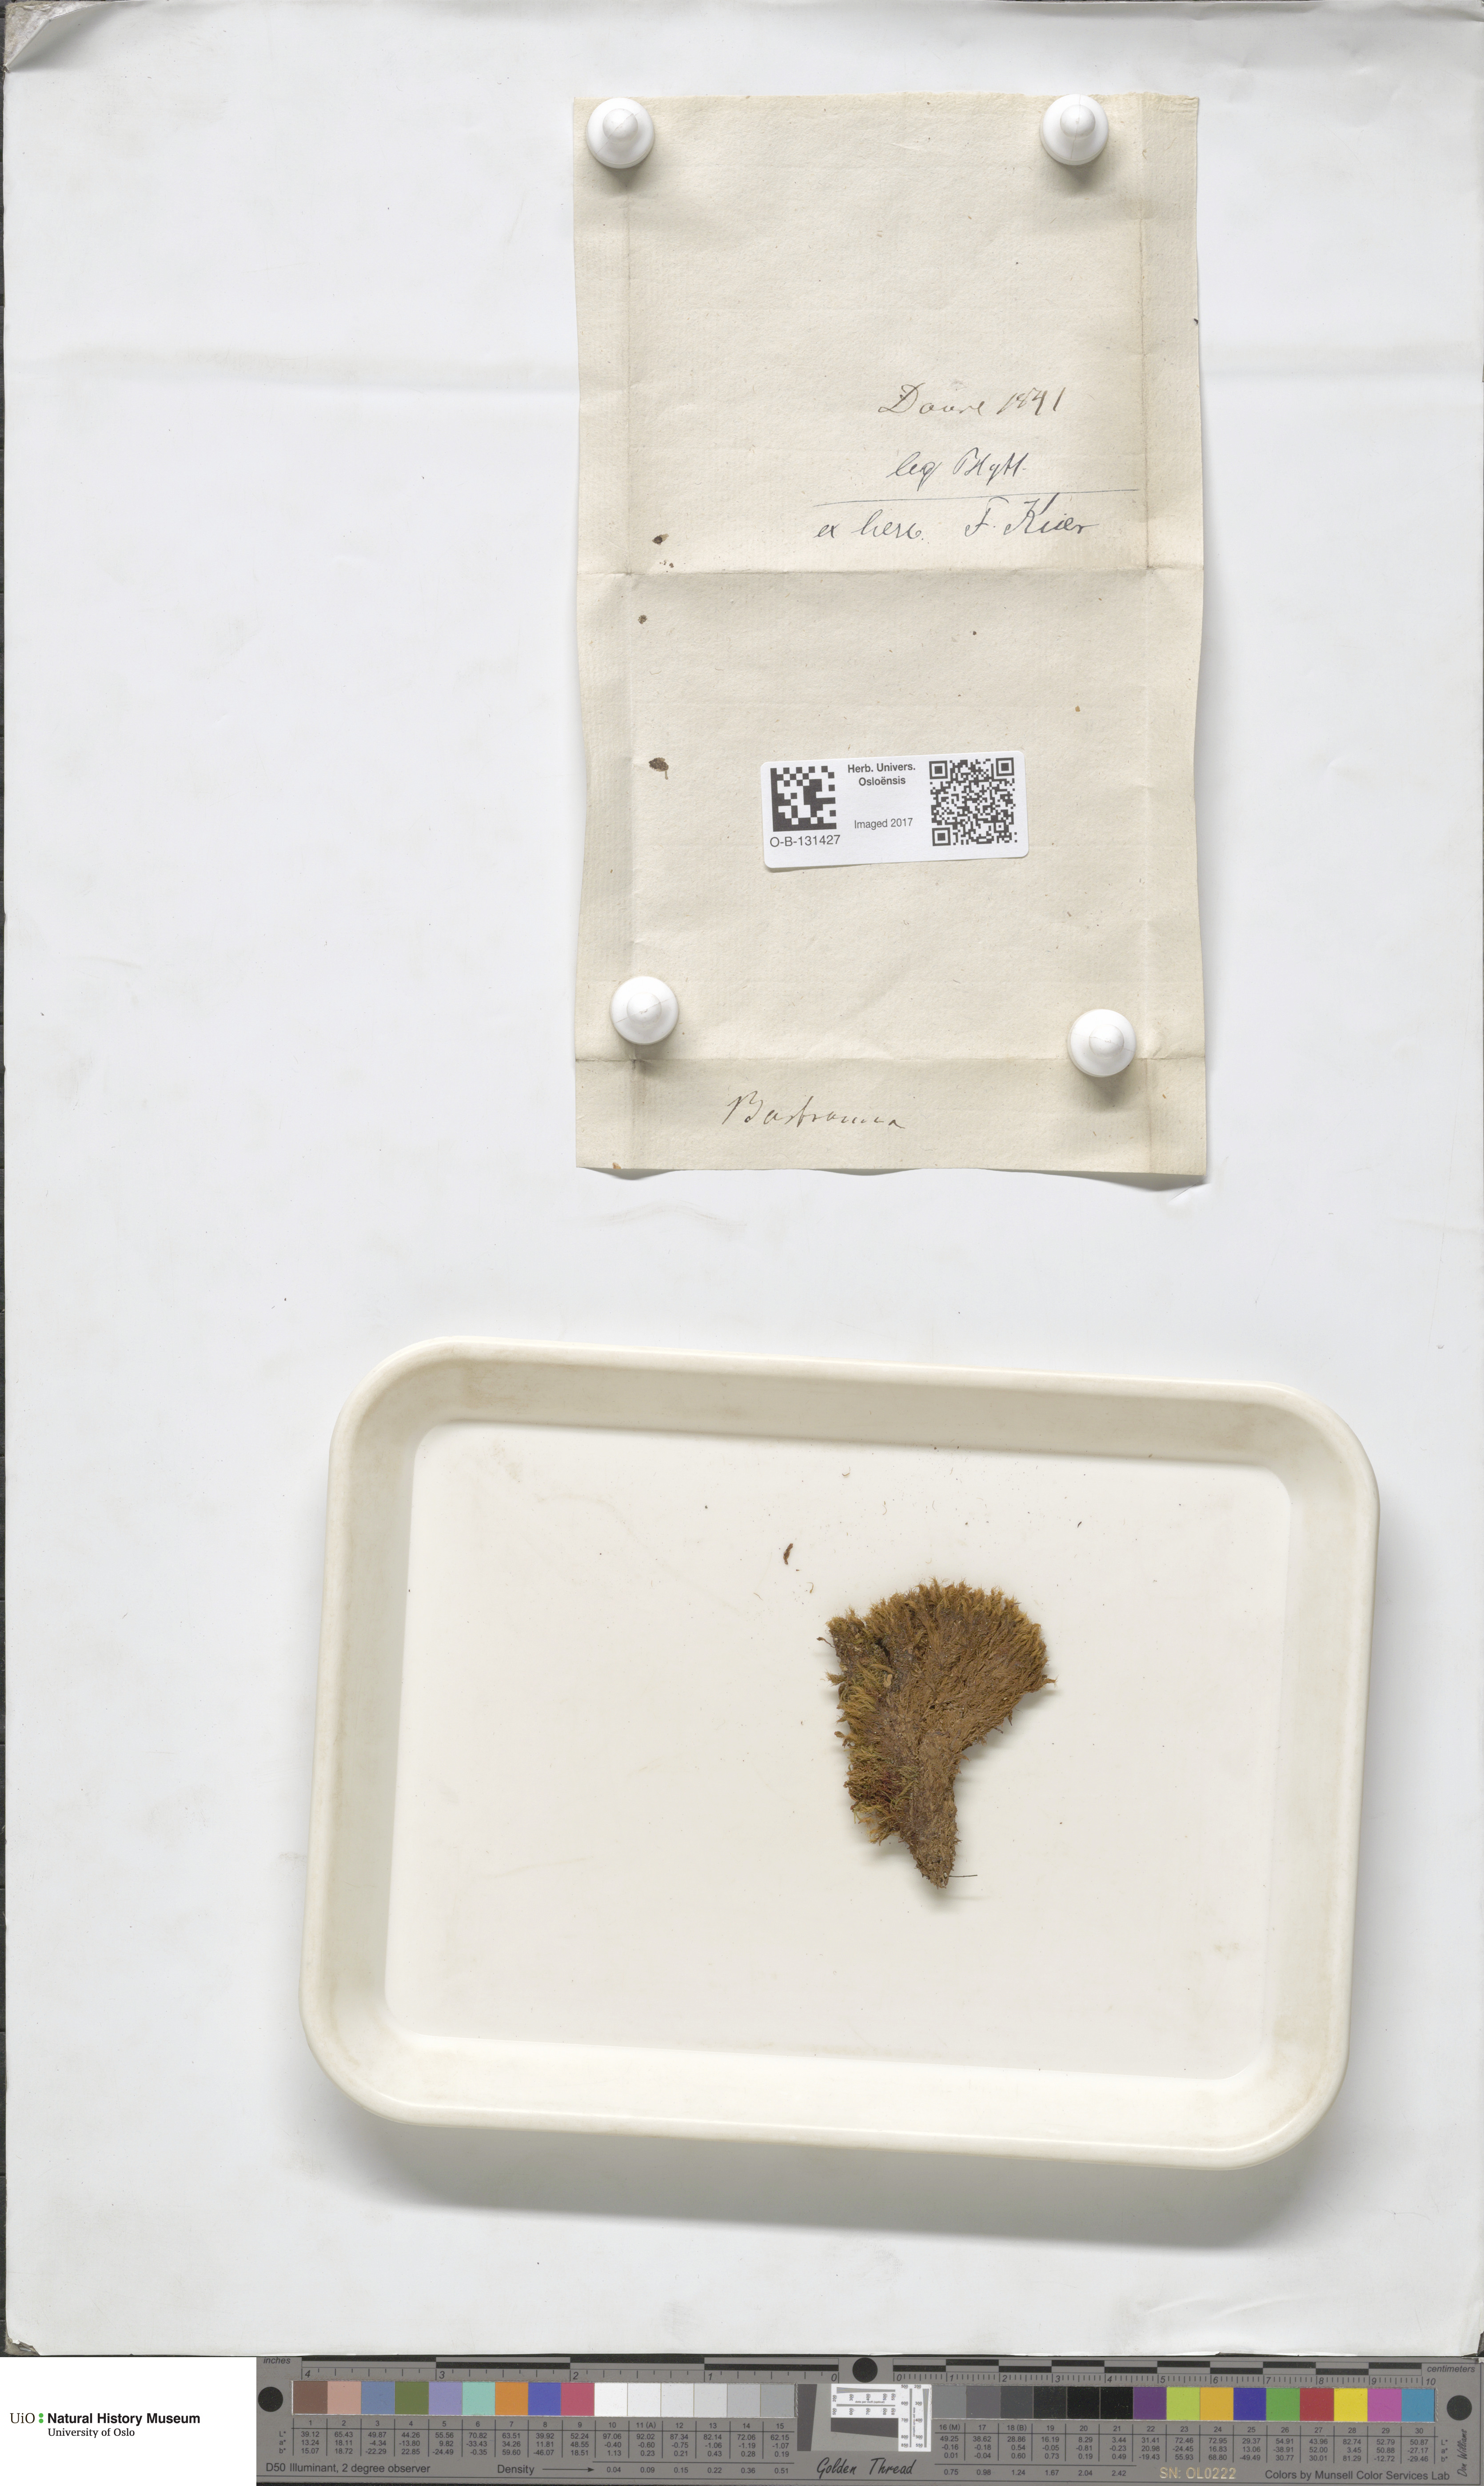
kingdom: Plantae
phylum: Bryophyta
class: Bryopsida
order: Grimmiales
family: Seligeriaceae
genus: Blindia
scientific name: Blindia acuta
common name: Sharp-leaved blind's moss
